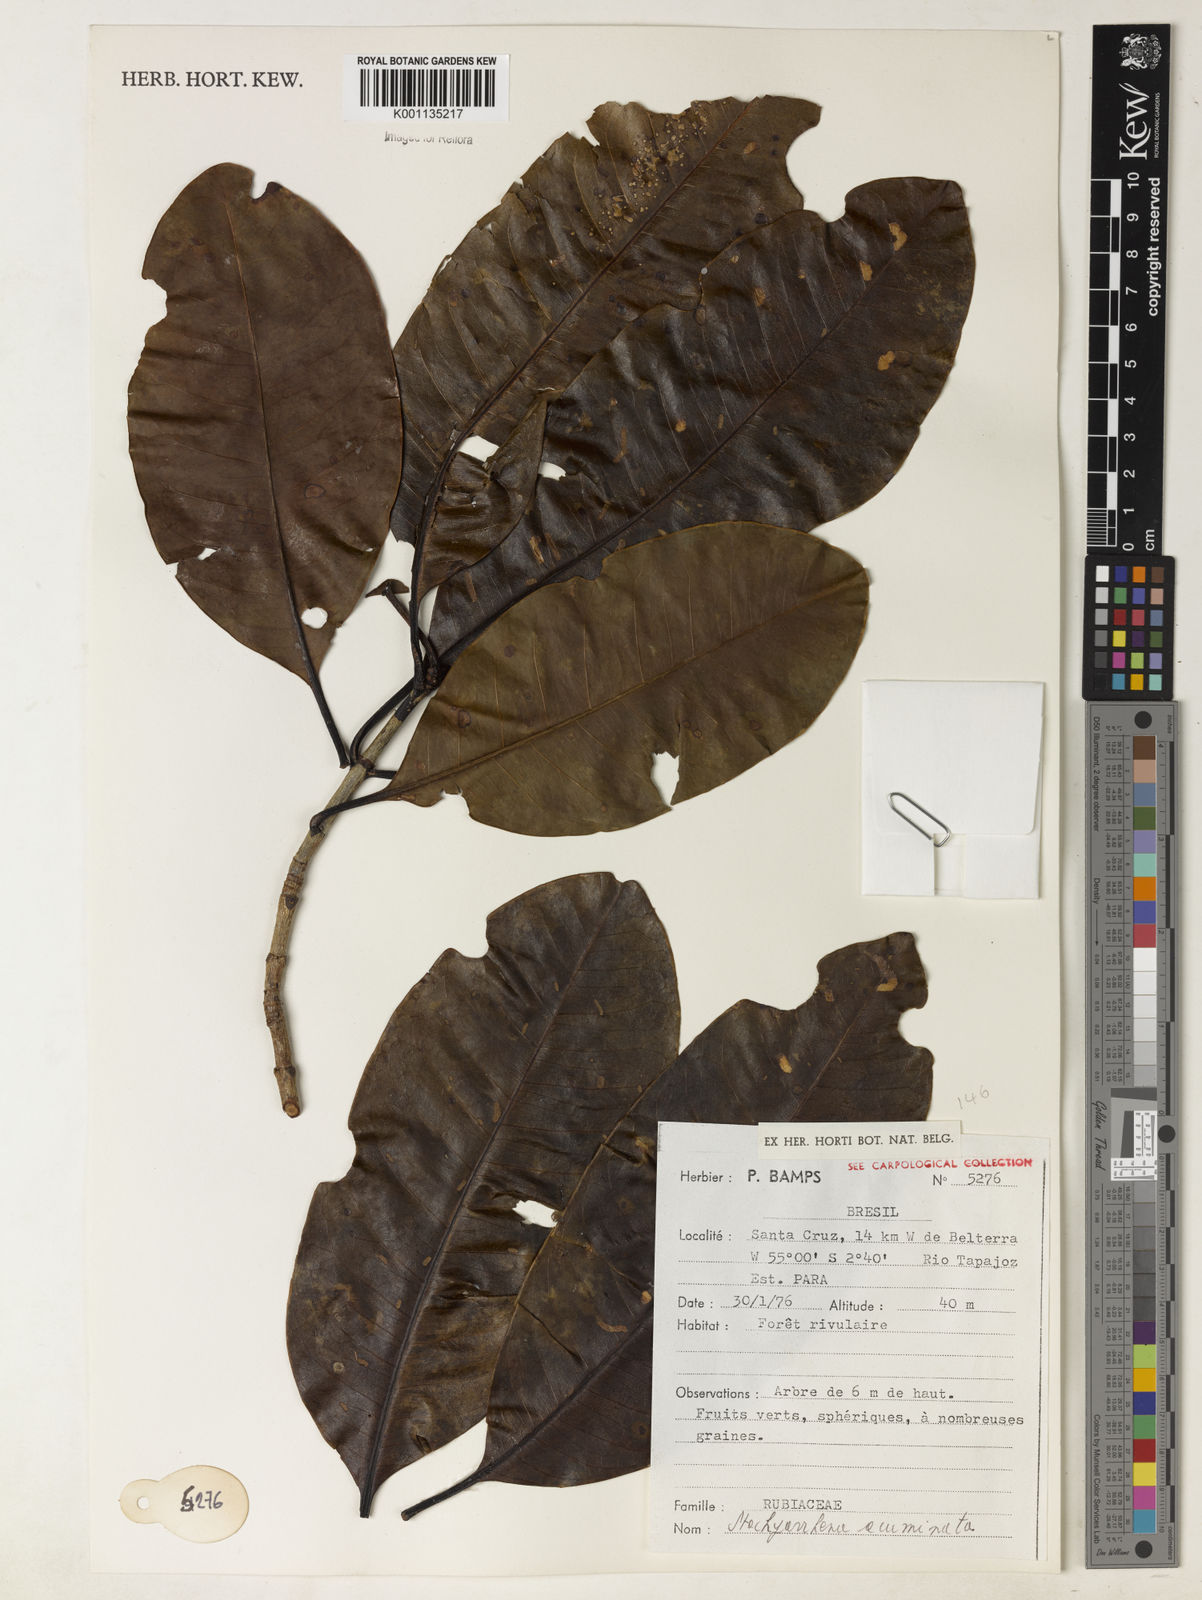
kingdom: Plantae
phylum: Tracheophyta
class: Magnoliopsida
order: Gentianales
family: Rubiaceae
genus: Stachyarrhena
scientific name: Stachyarrhena acuminata
